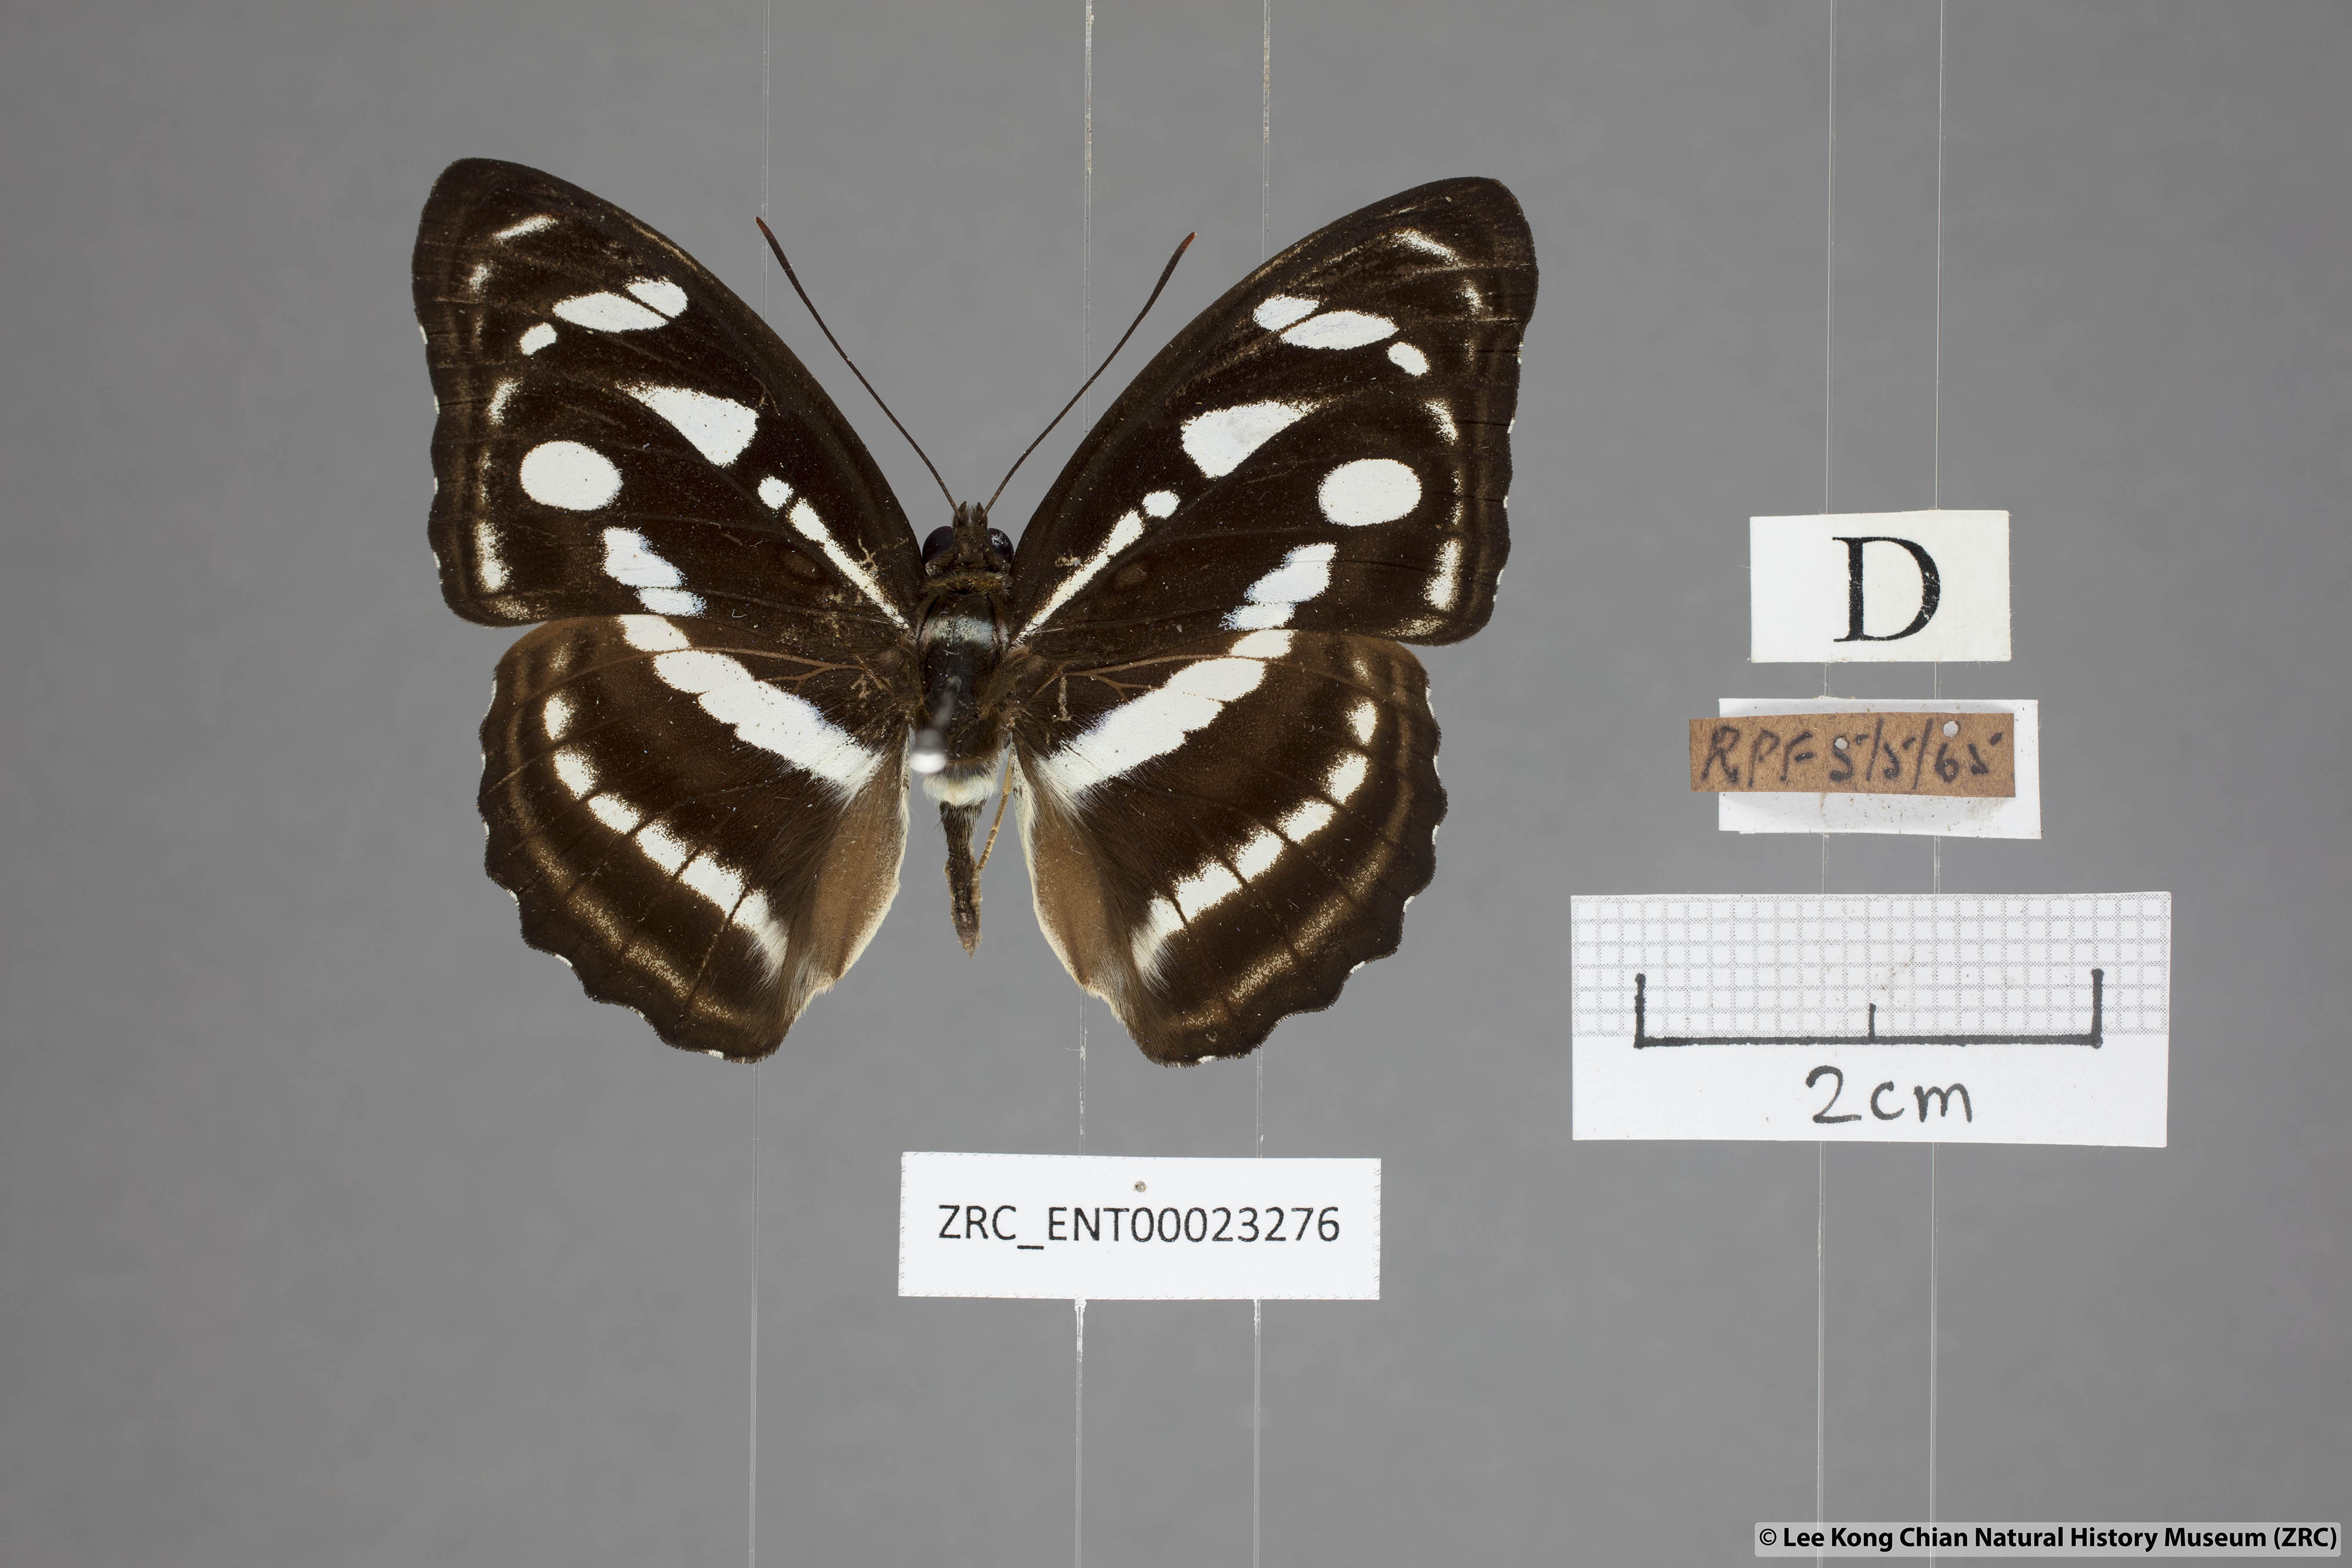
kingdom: Animalia
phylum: Arthropoda
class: Insecta
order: Lepidoptera
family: Nymphalidae
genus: Parathyma
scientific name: Parathyma reta
